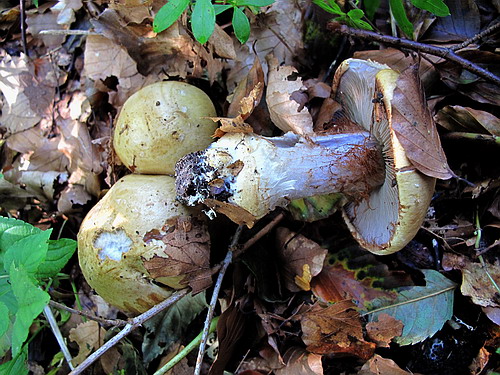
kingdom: Fungi
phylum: Basidiomycota
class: Agaricomycetes
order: Agaricales
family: Cortinariaceae
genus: Cortinarius
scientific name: Cortinarius anserinus
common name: bøge-slørhat
